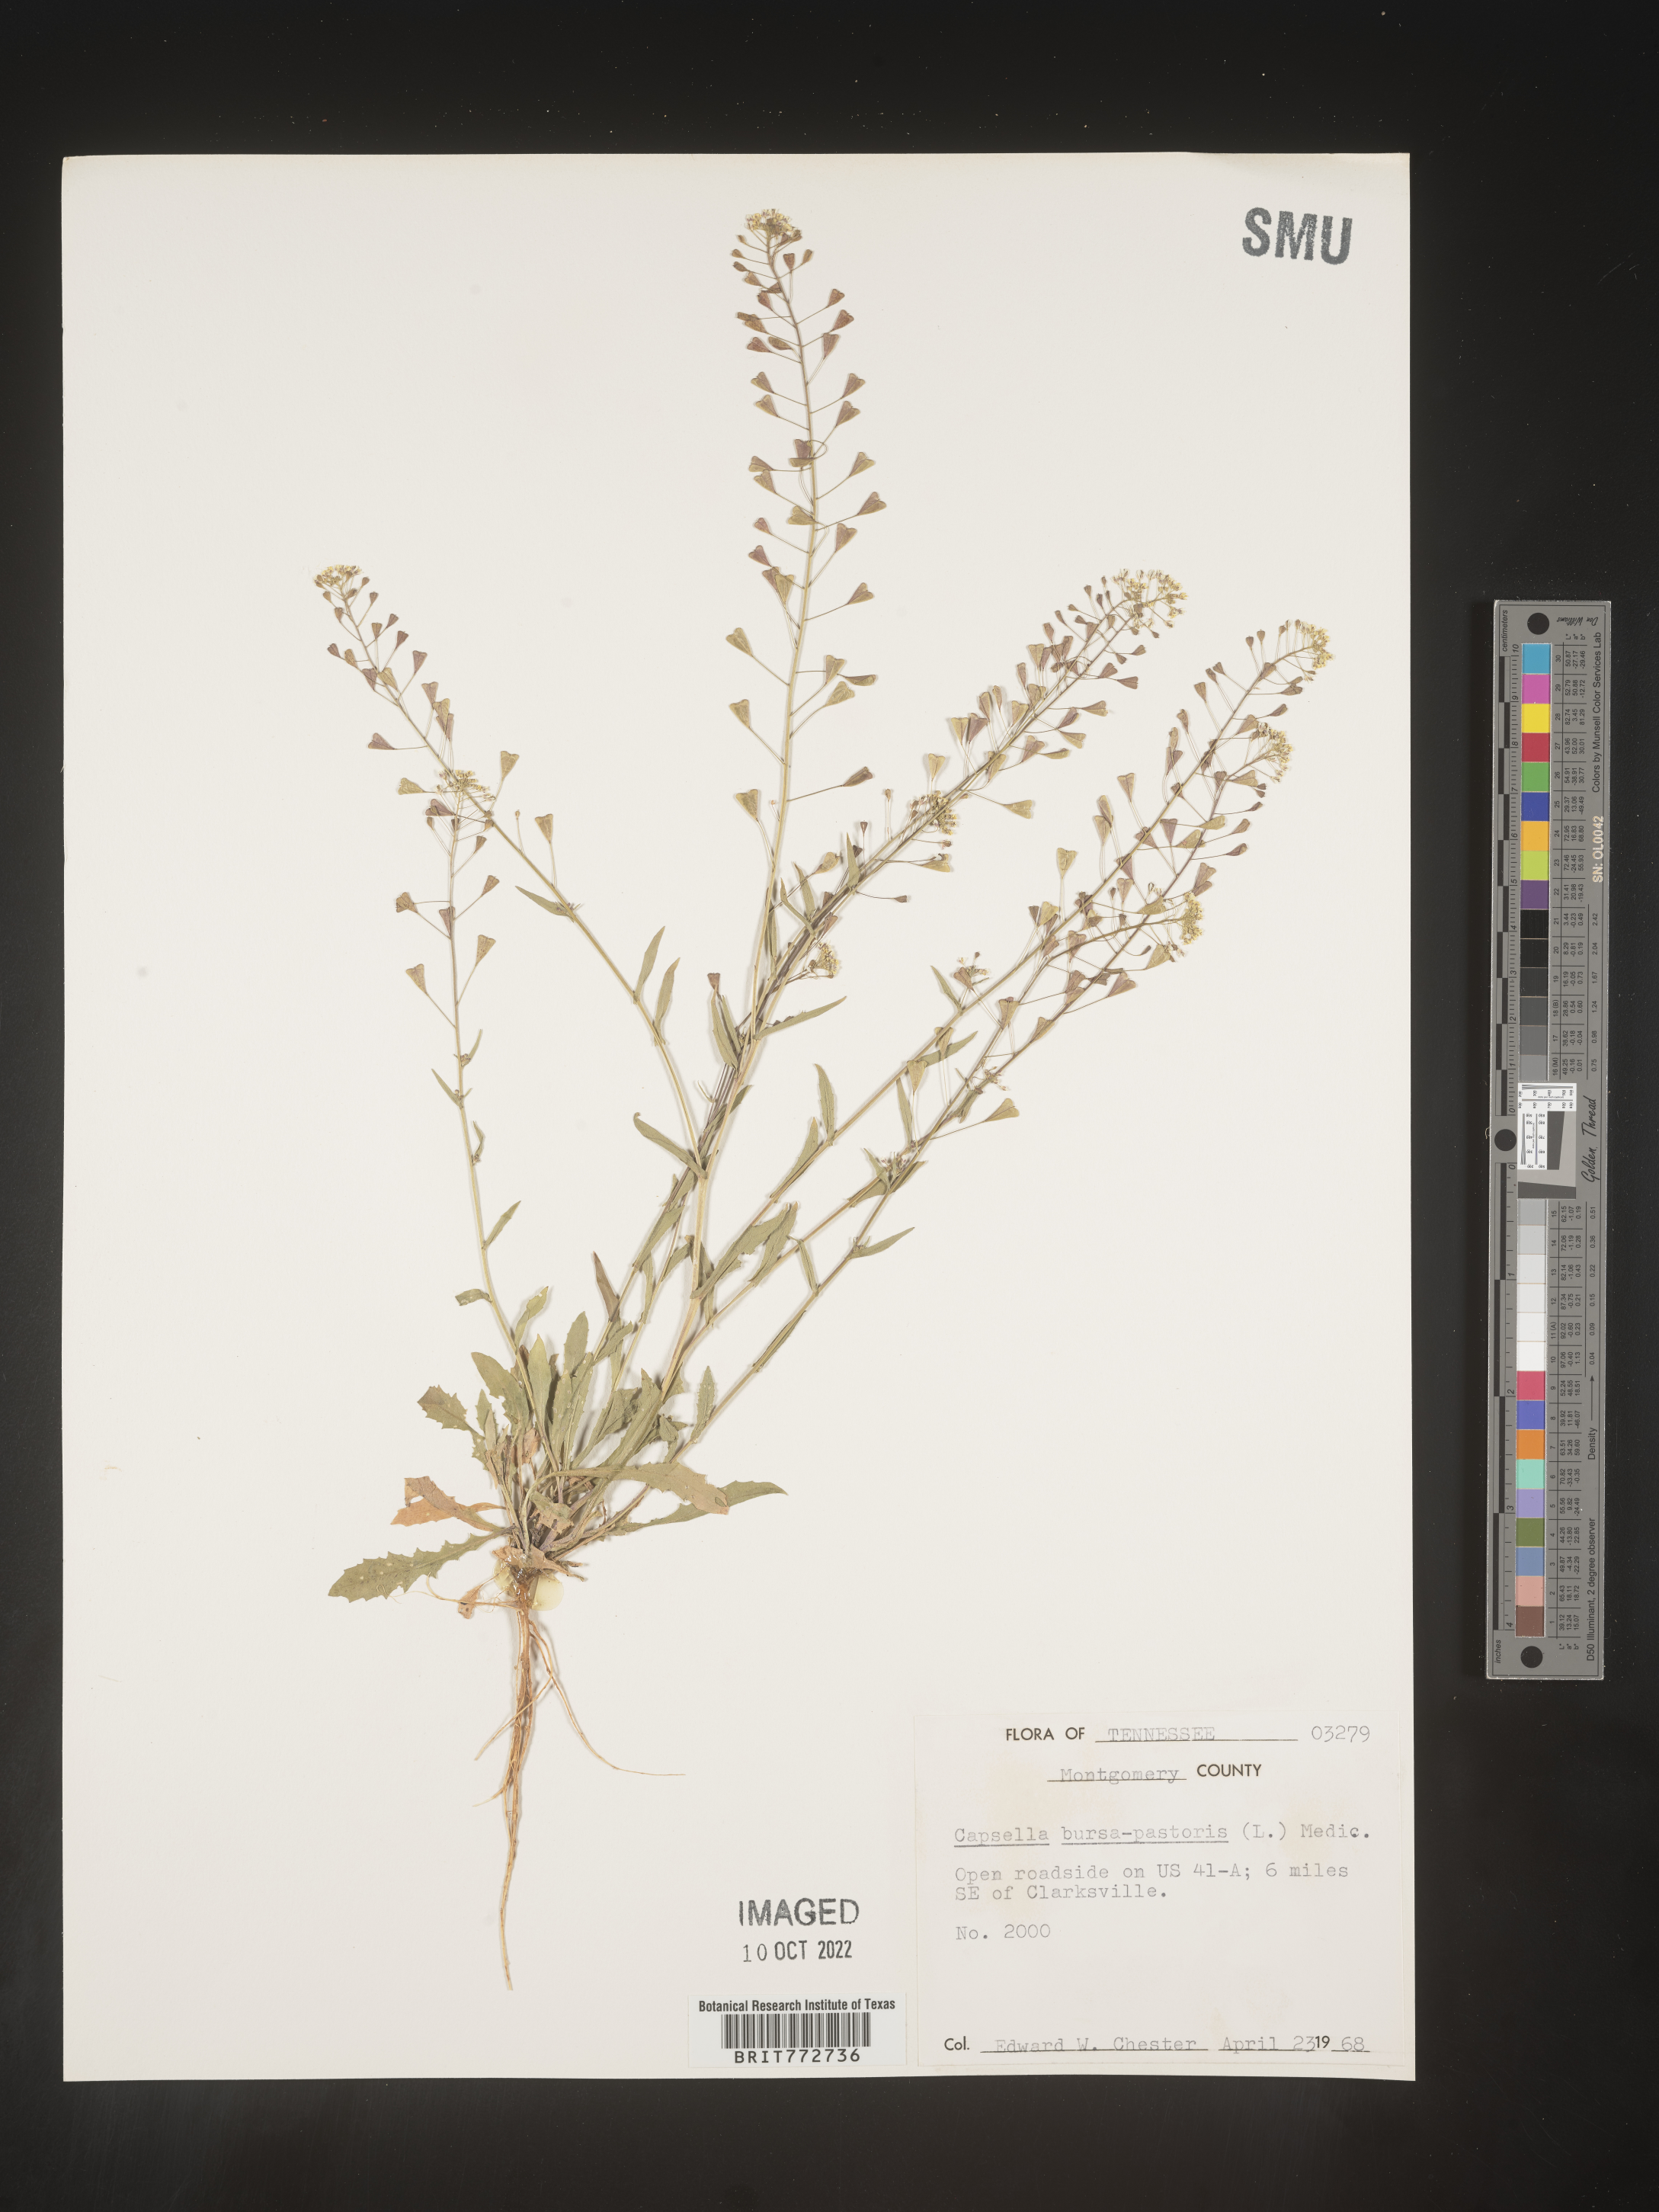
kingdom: Plantae
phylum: Tracheophyta
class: Magnoliopsida
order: Brassicales
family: Brassicaceae
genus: Capsella
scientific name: Capsella bursa-pastoris
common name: Shepherd's purse
